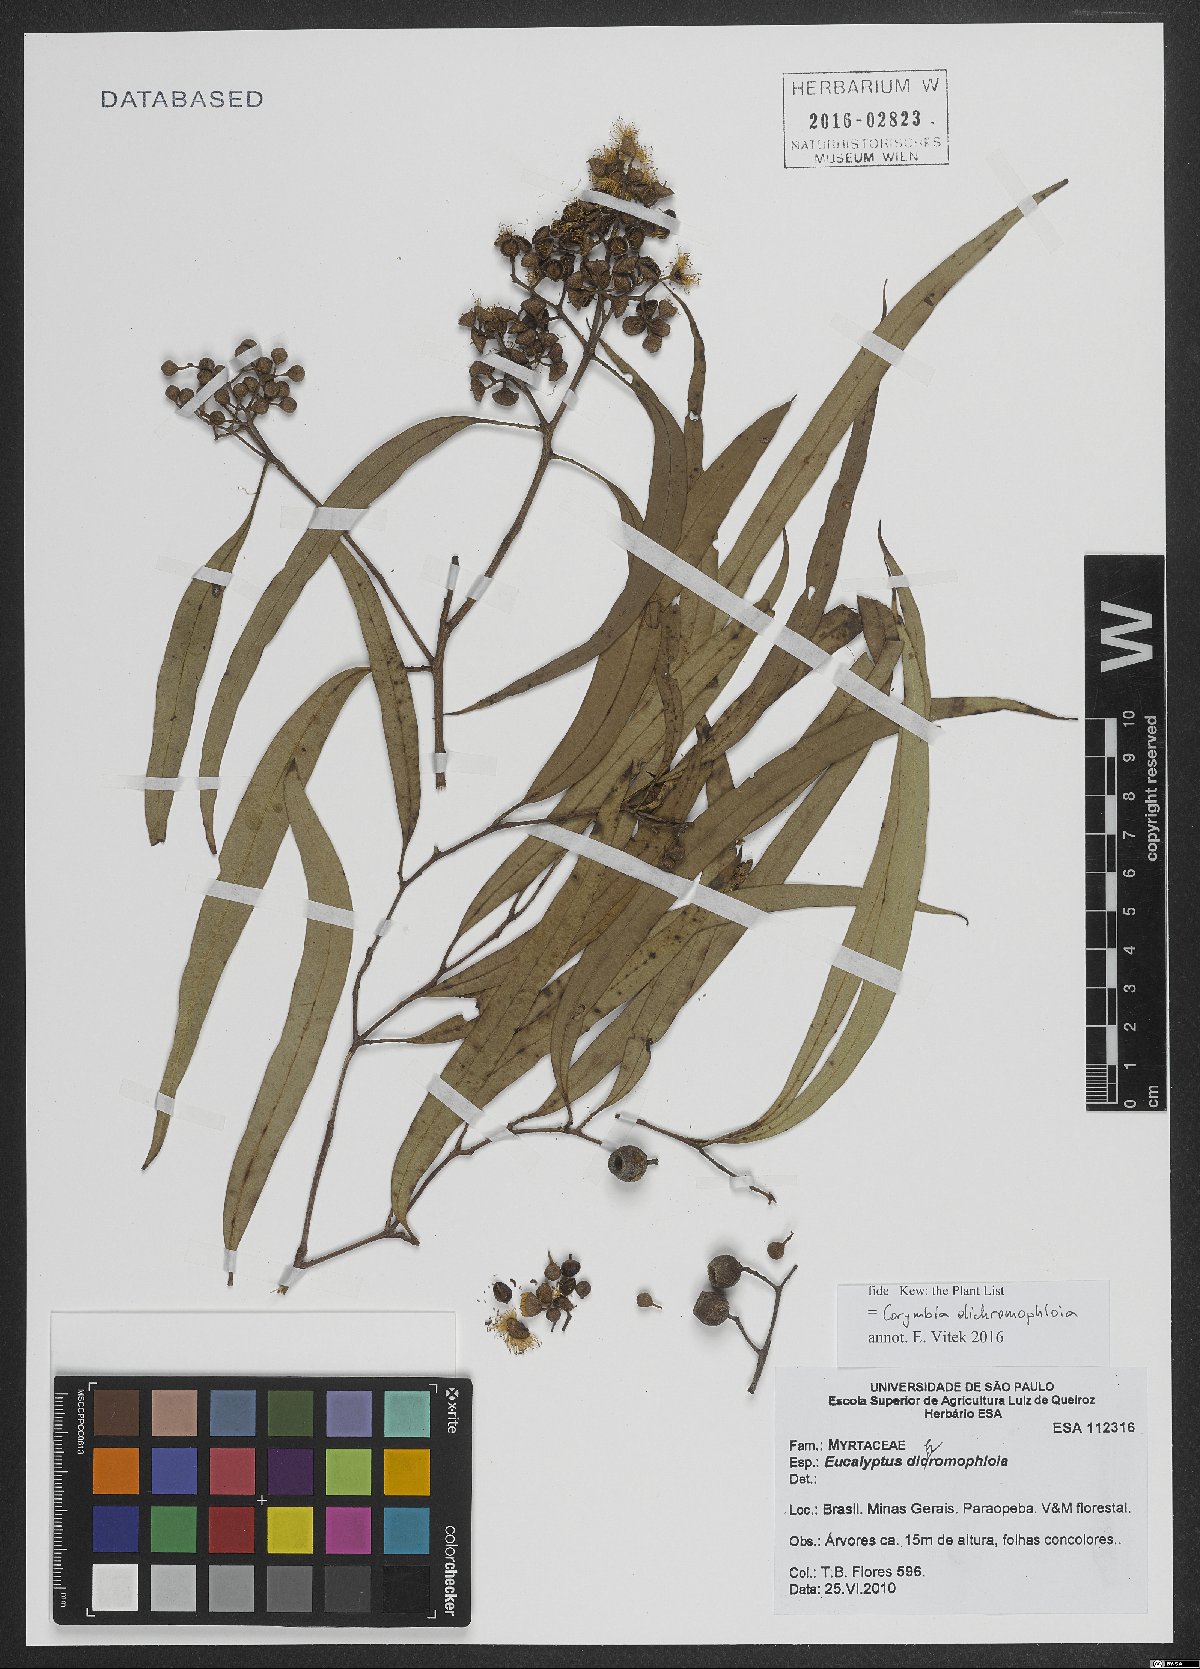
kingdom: Plantae
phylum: Tracheophyta
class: Magnoliopsida
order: Myrtales
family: Myrtaceae
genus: Corymbia
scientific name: Corymbia dichromophloia
